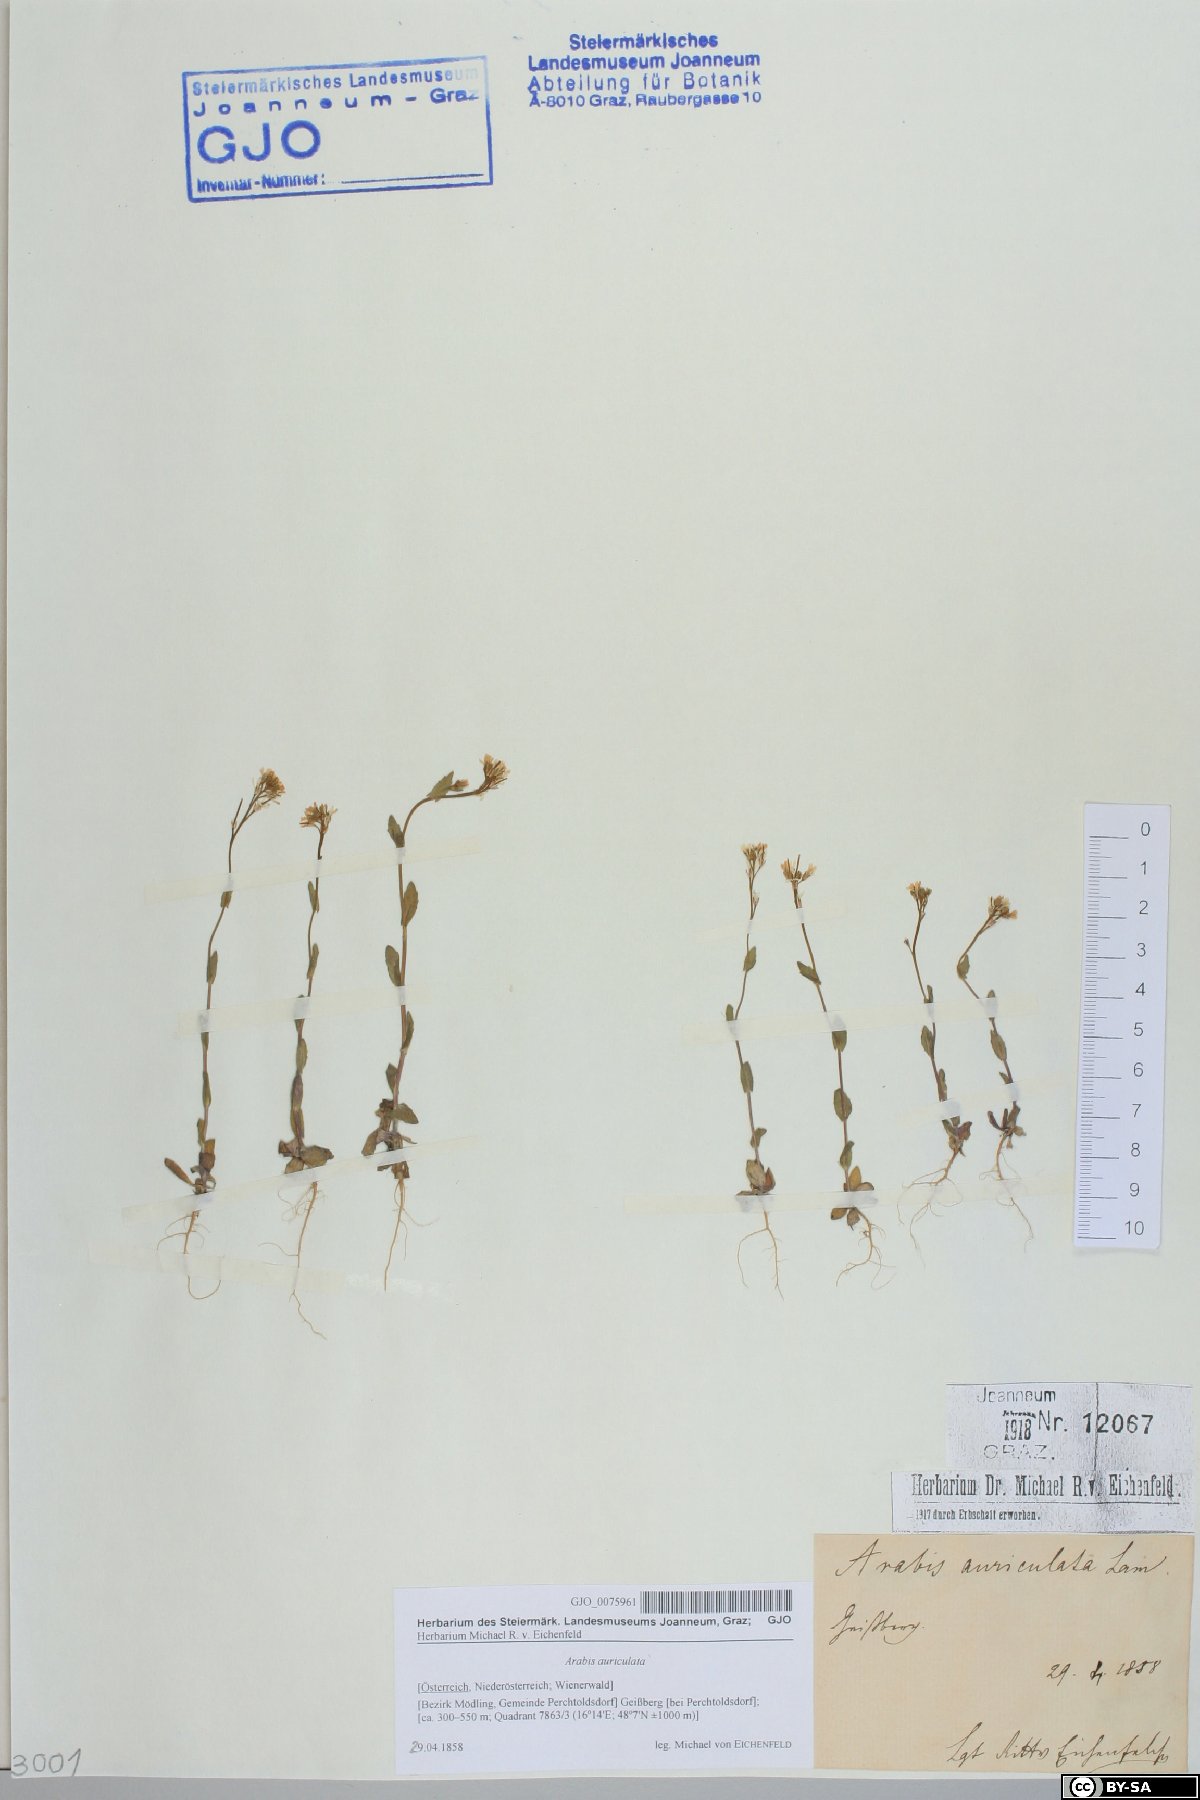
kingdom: Plantae
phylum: Tracheophyta
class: Magnoliopsida
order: Brassicales
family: Brassicaceae
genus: Arabis
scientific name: Arabis auriculata
